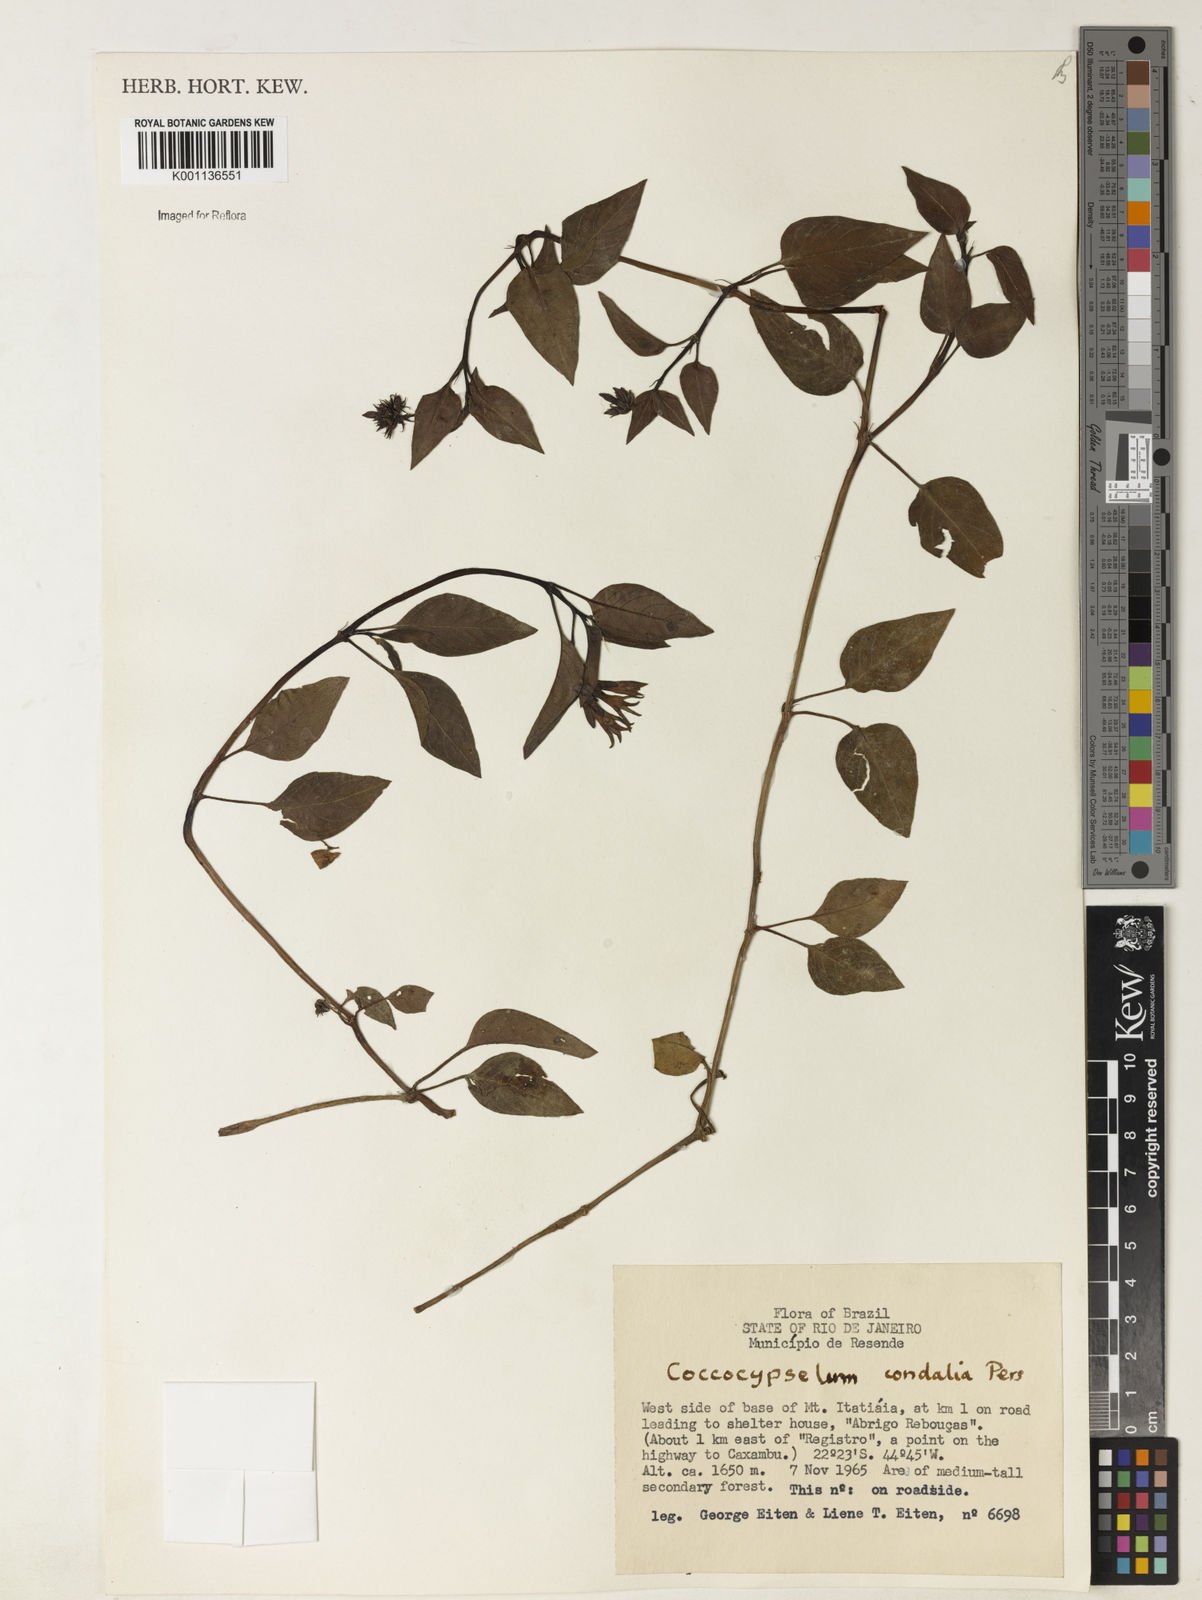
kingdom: Plantae
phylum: Tracheophyta
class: Magnoliopsida
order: Gentianales
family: Rubiaceae
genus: Coccocypselum
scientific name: Coccocypselum condalia
